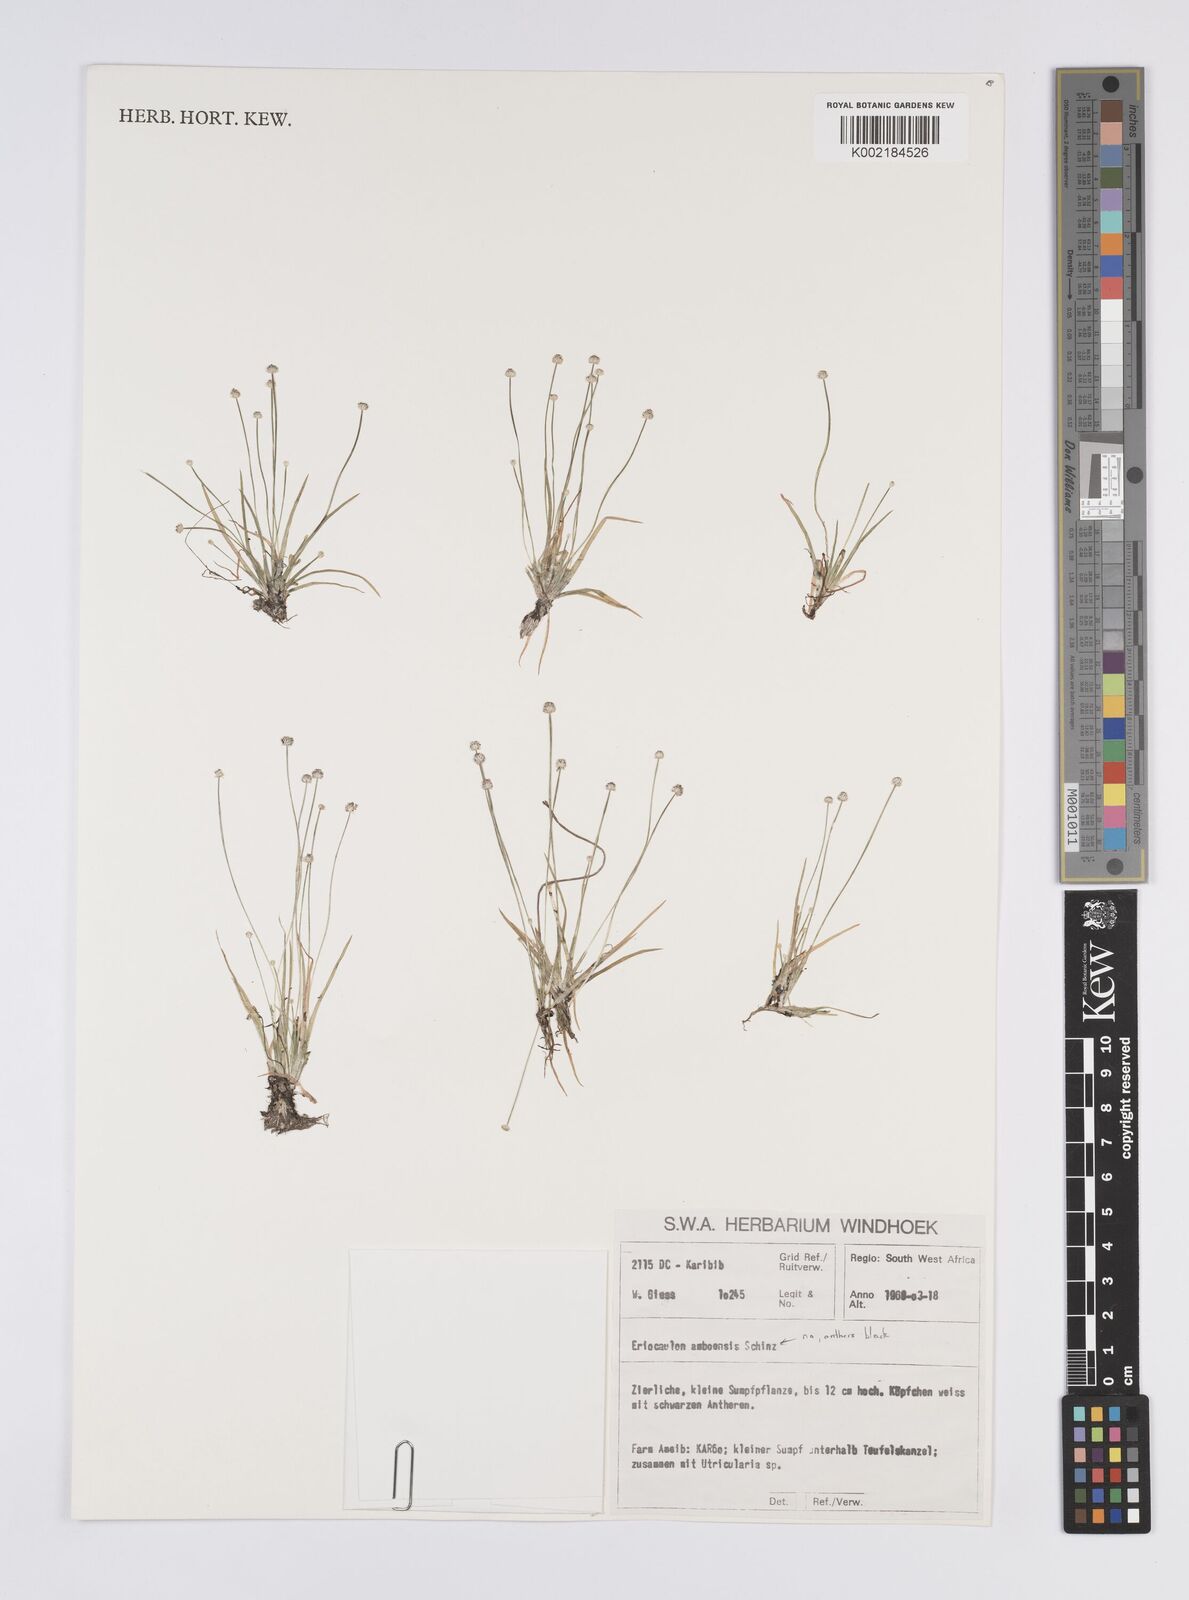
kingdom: Plantae
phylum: Tracheophyta
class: Liliopsida
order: Poales
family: Eriocaulaceae
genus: Eriocaulon
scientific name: Eriocaulon welwitschii
